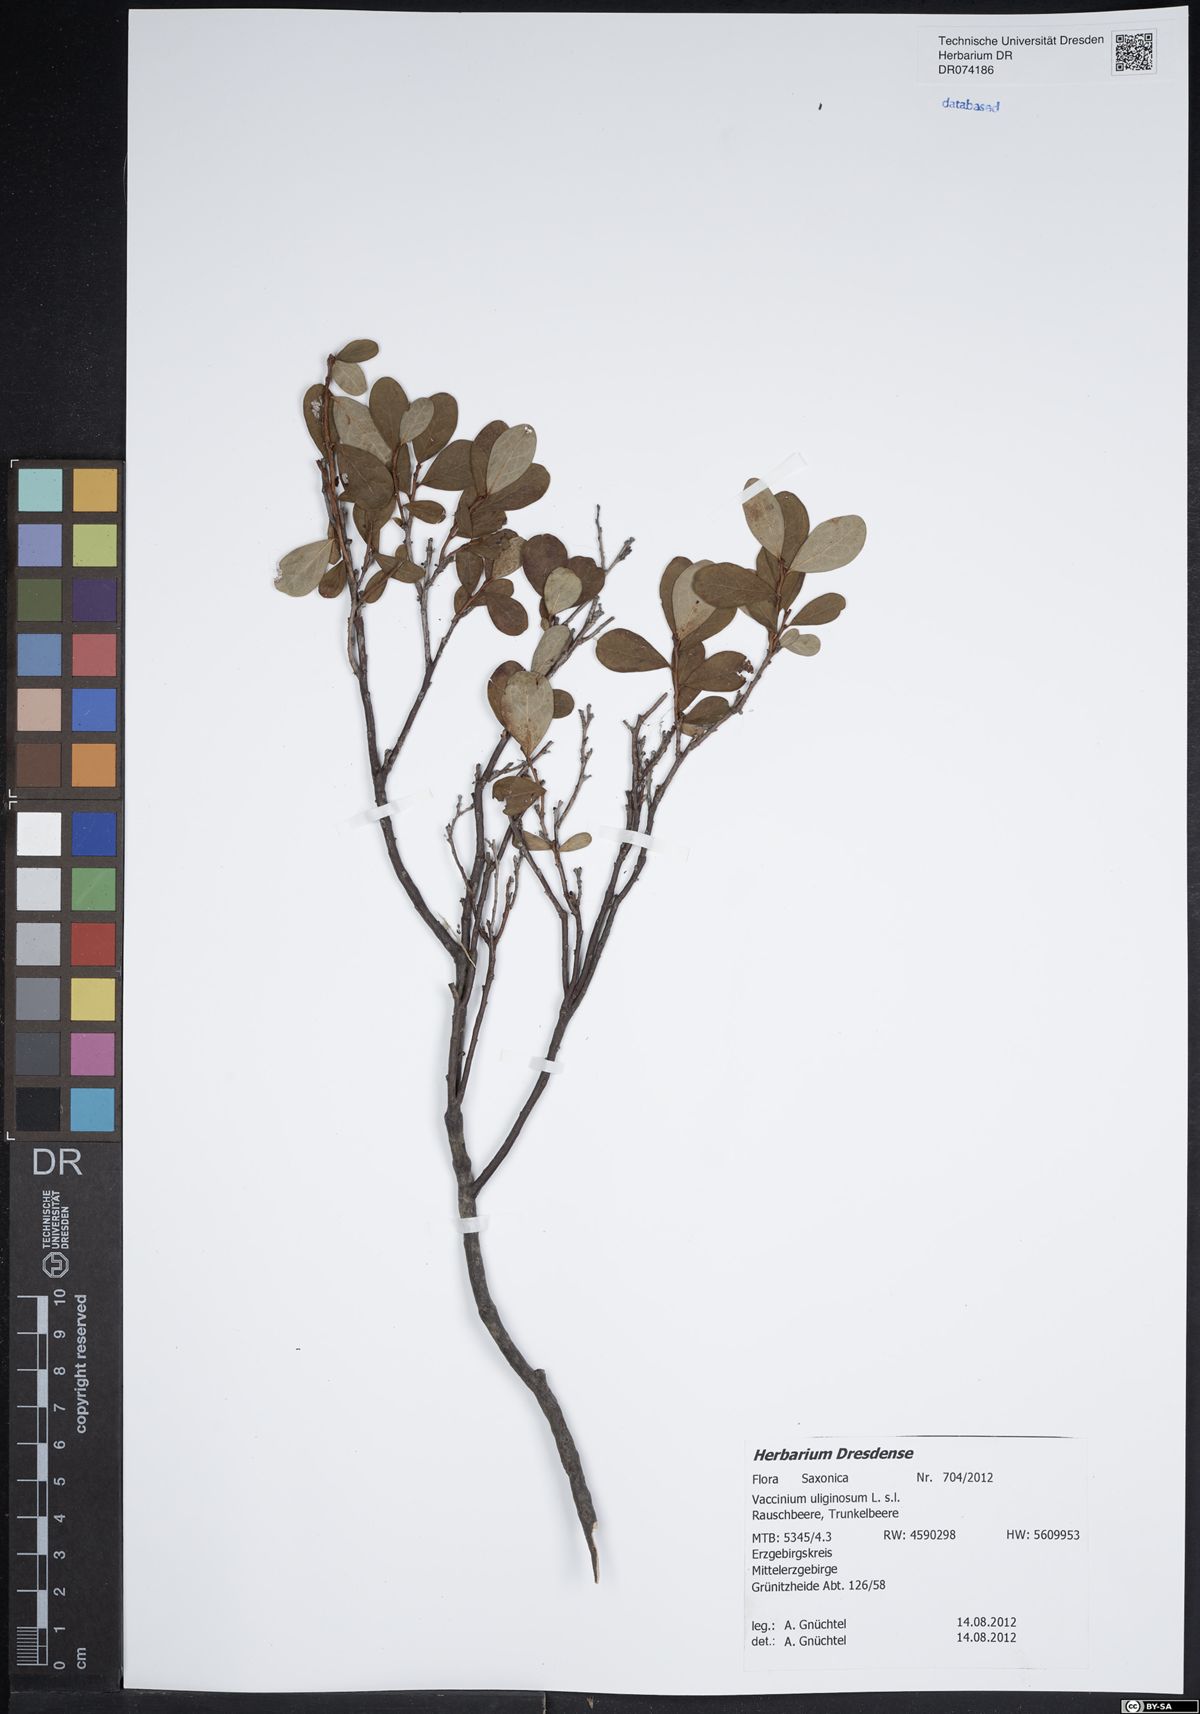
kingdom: Plantae
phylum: Tracheophyta
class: Magnoliopsida
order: Ericales
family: Ericaceae
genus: Vaccinium
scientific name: Vaccinium uliginosum
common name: Bog bilberry
